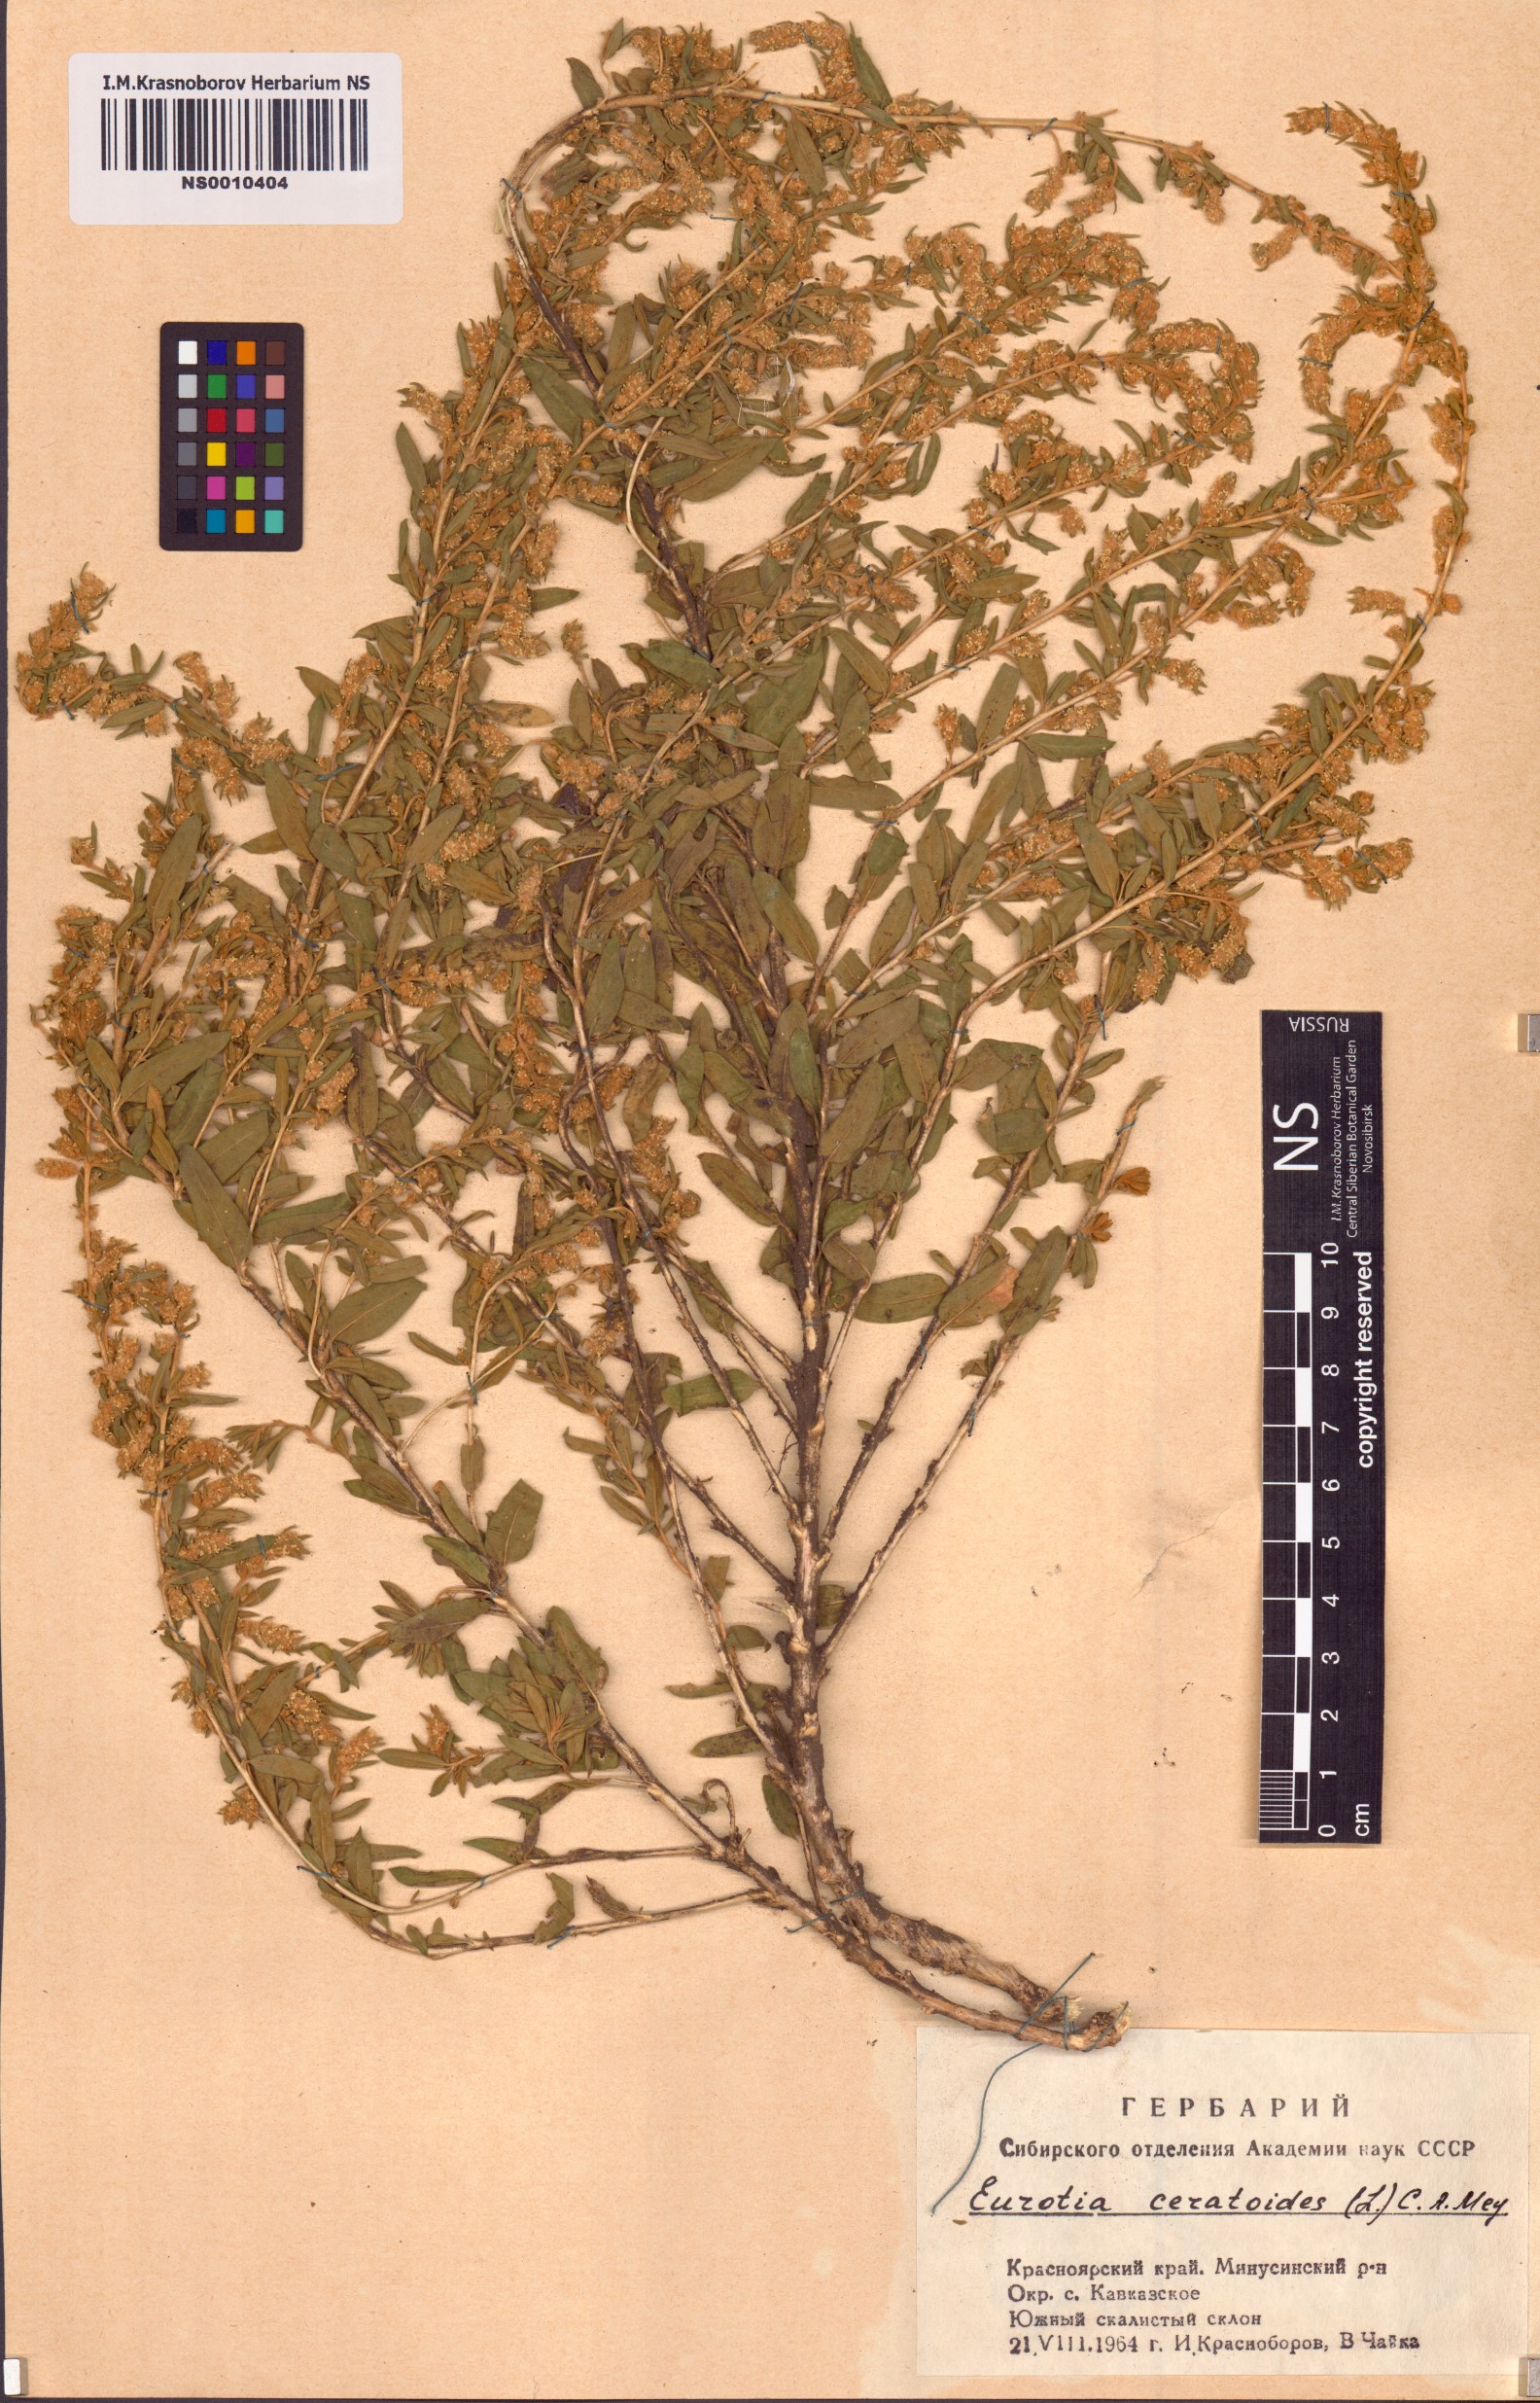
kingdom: Plantae
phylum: Tracheophyta
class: Magnoliopsida
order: Caryophyllales
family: Amaranthaceae
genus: Krascheninnikovia
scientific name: Krascheninnikovia ceratoides
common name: Pamirian winterfat
